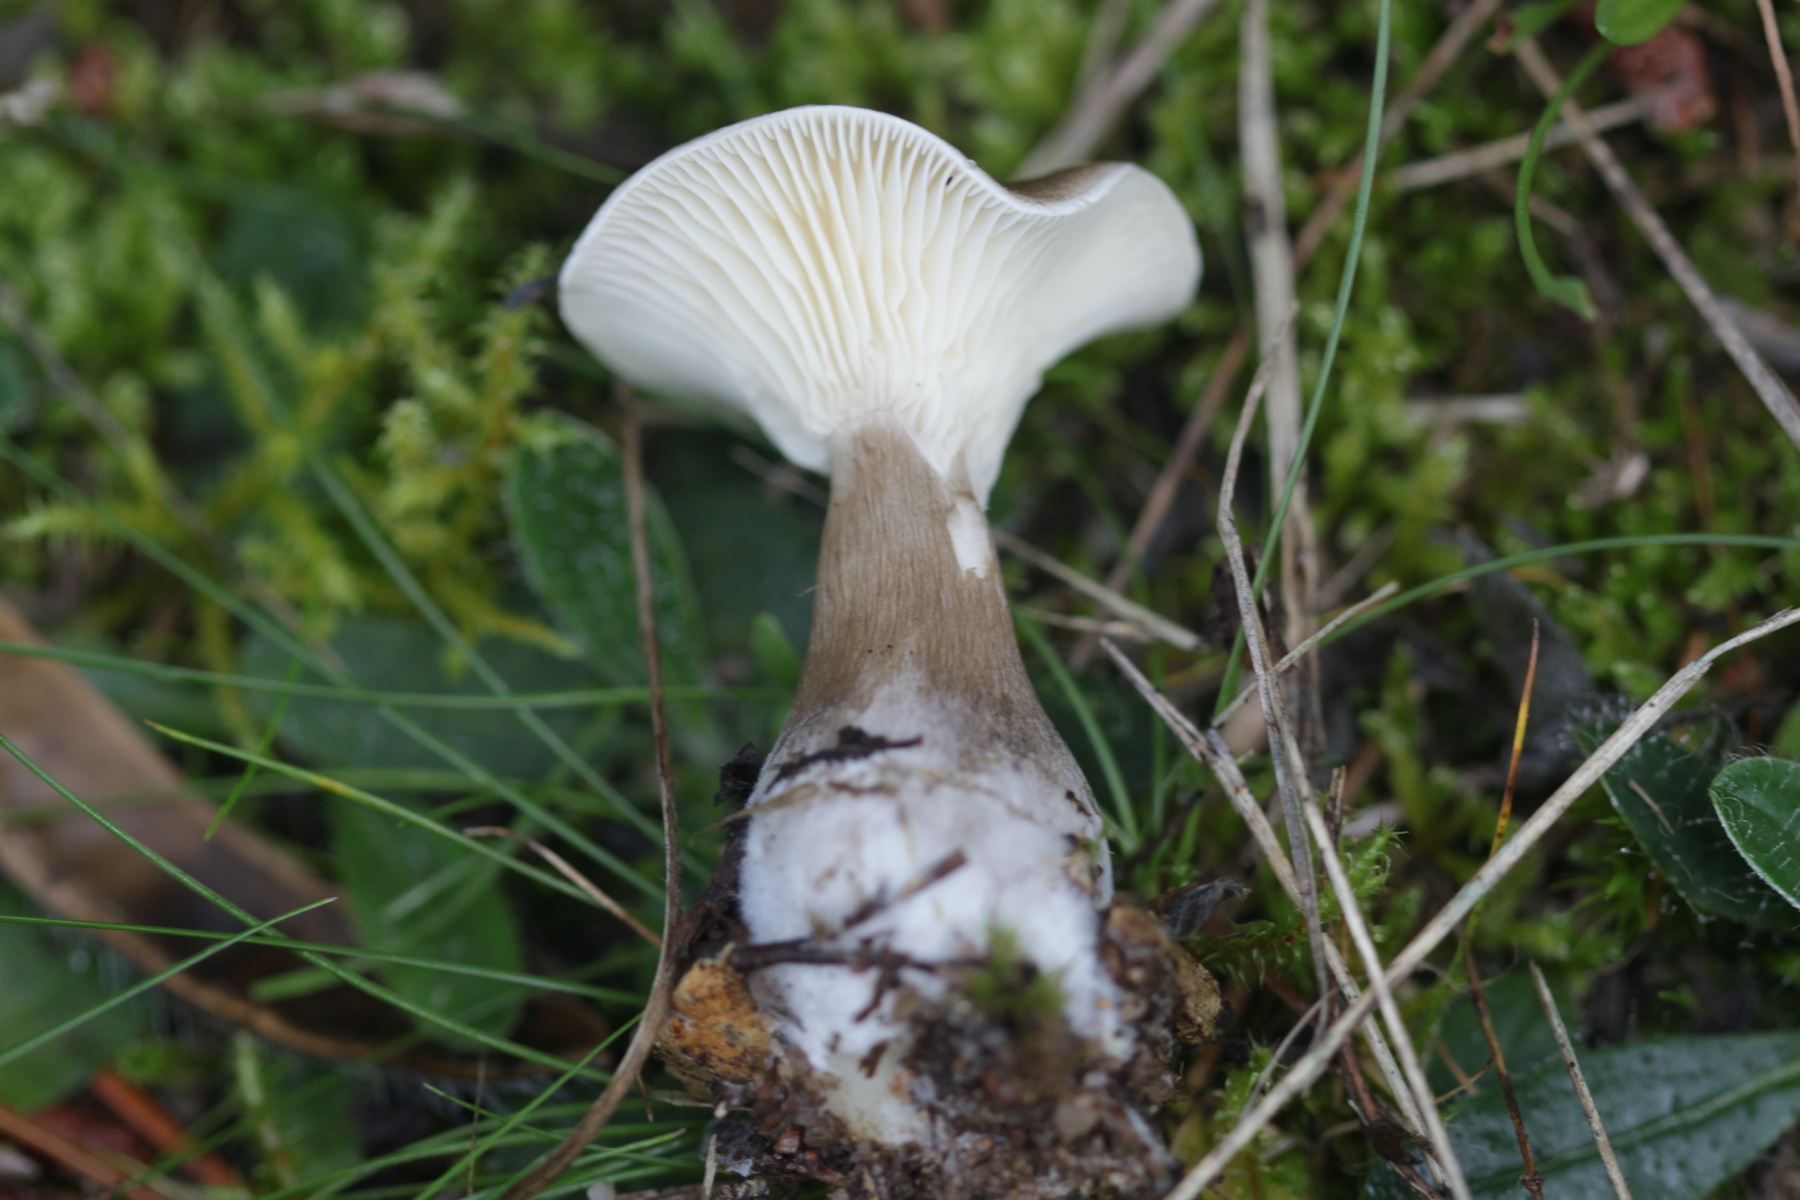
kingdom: Fungi
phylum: Basidiomycota
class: Agaricomycetes
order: Agaricales
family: Hygrophoraceae
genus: Ampulloclitocybe
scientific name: Ampulloclitocybe clavipes
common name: køllefod
